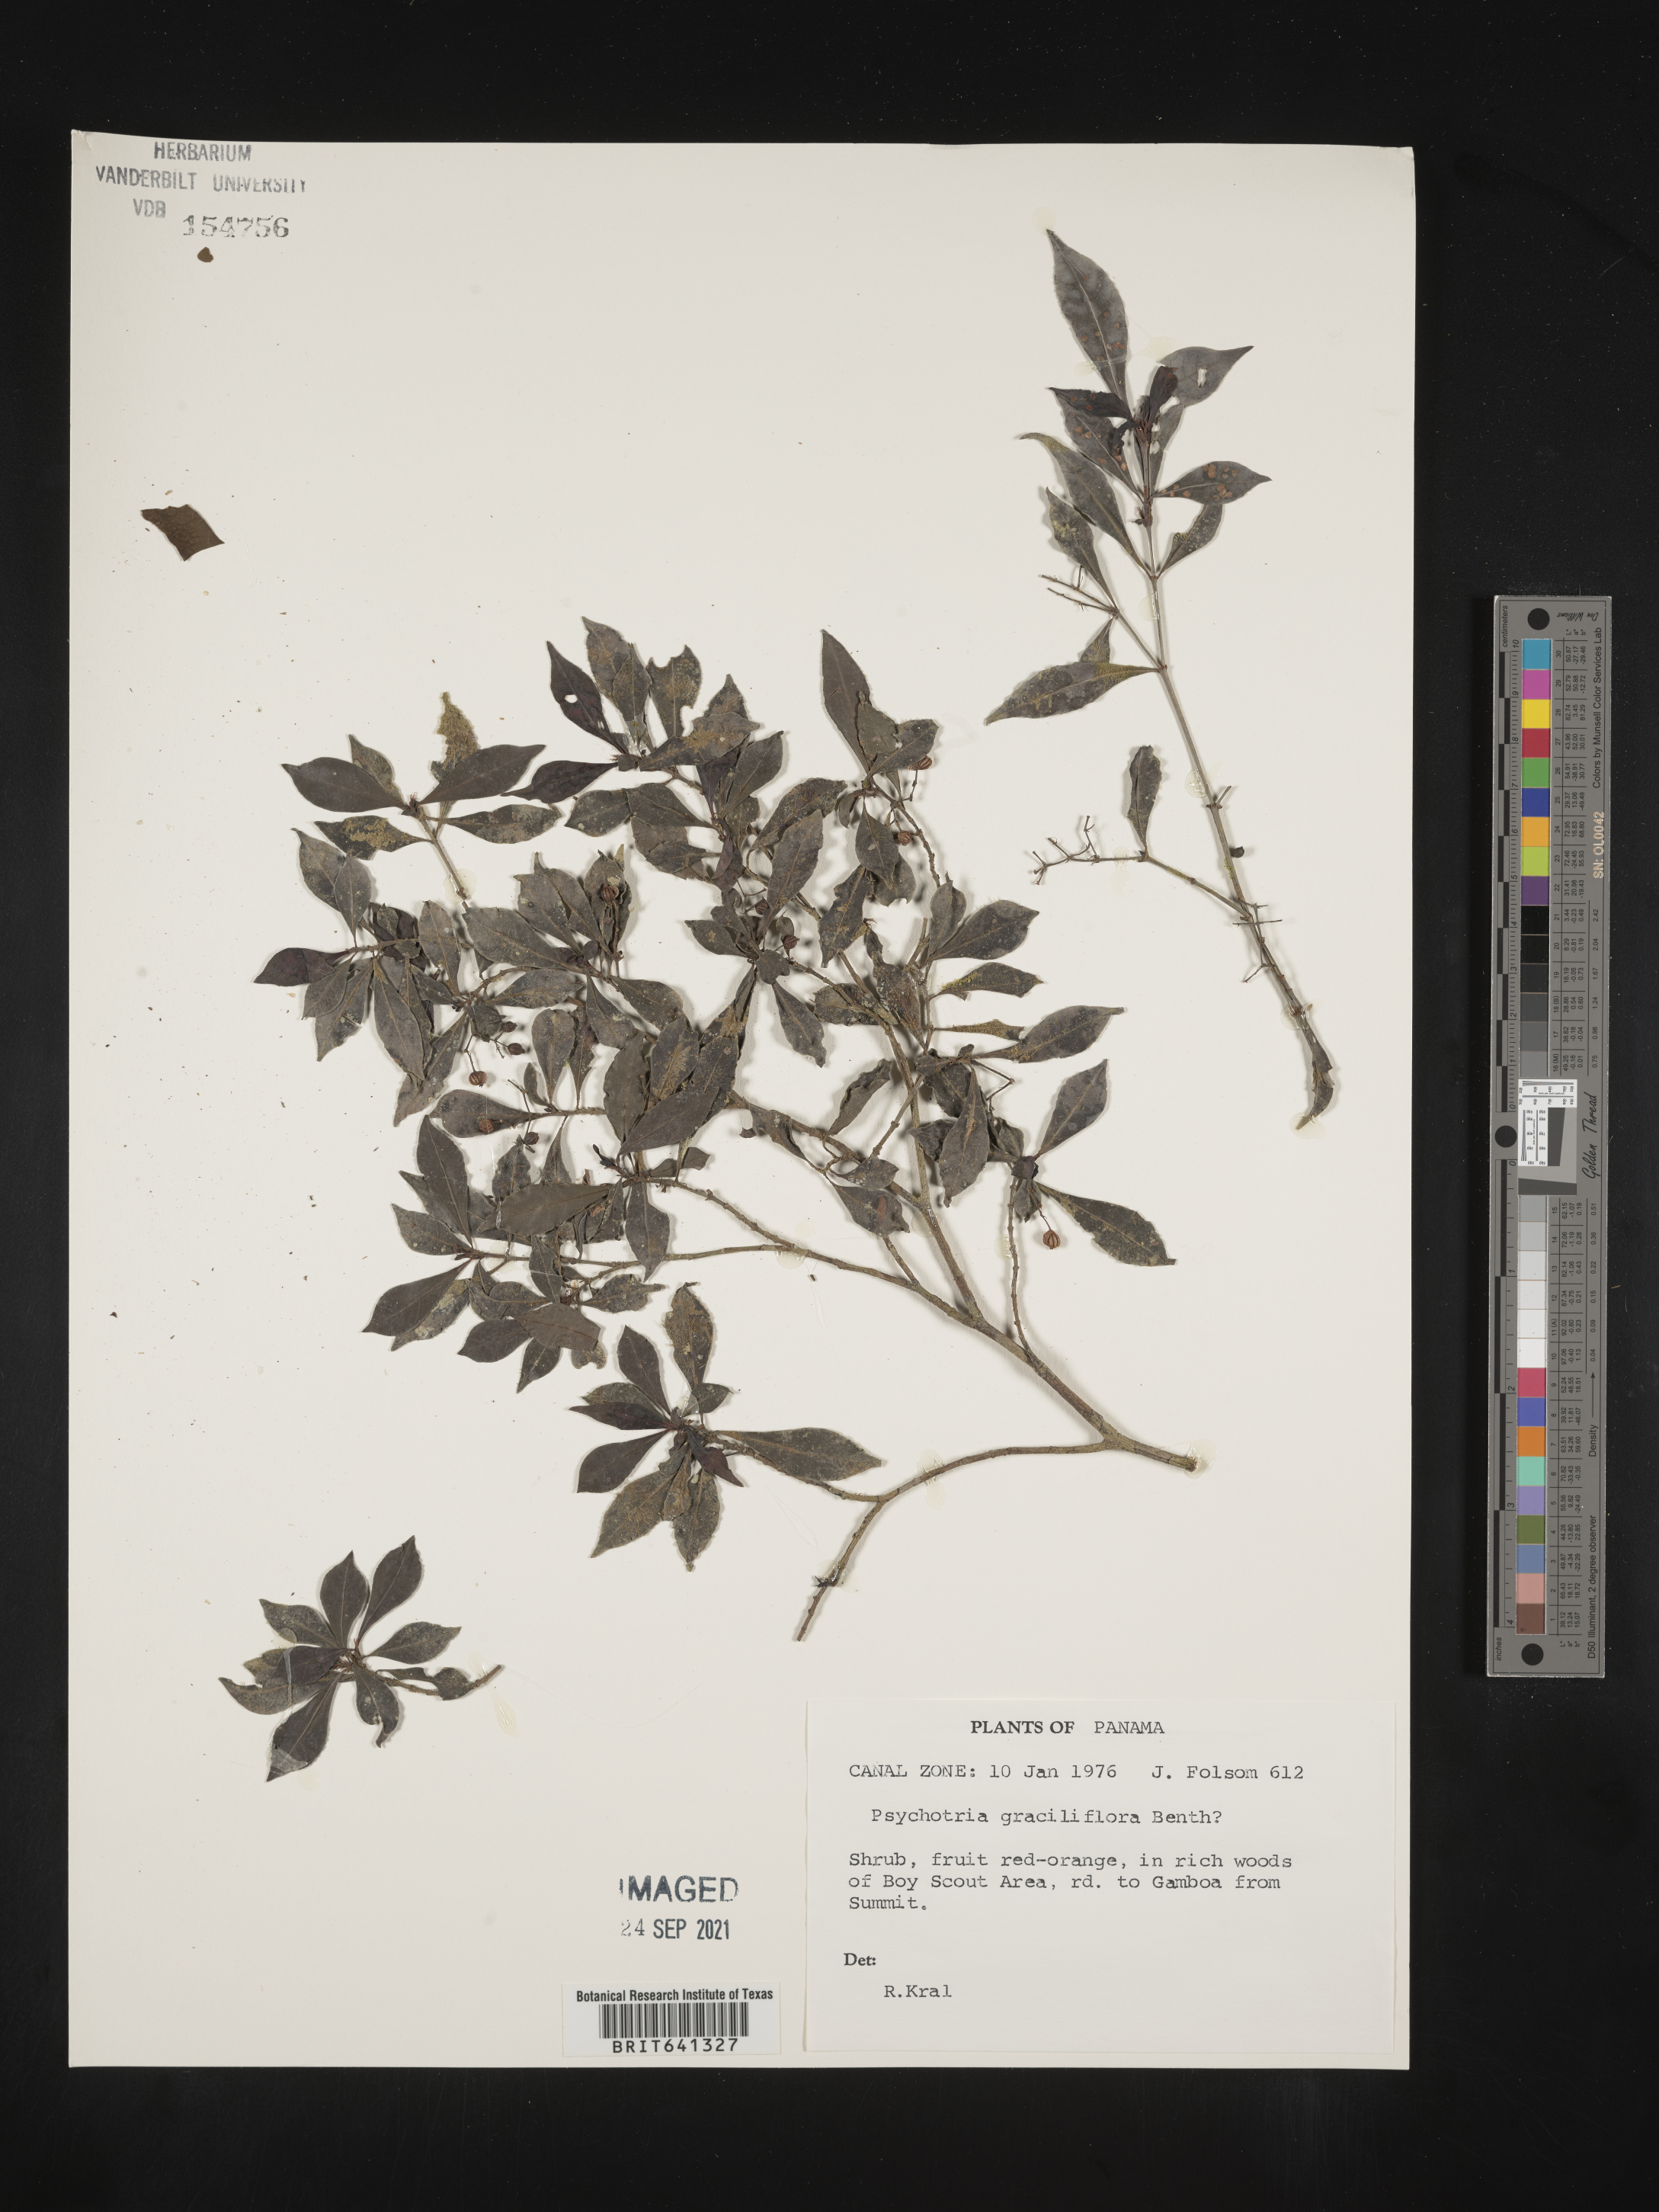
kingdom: Plantae
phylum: Tracheophyta
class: Magnoliopsida
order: Gentianales
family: Rubiaceae
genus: Psychotria
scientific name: Psychotria
